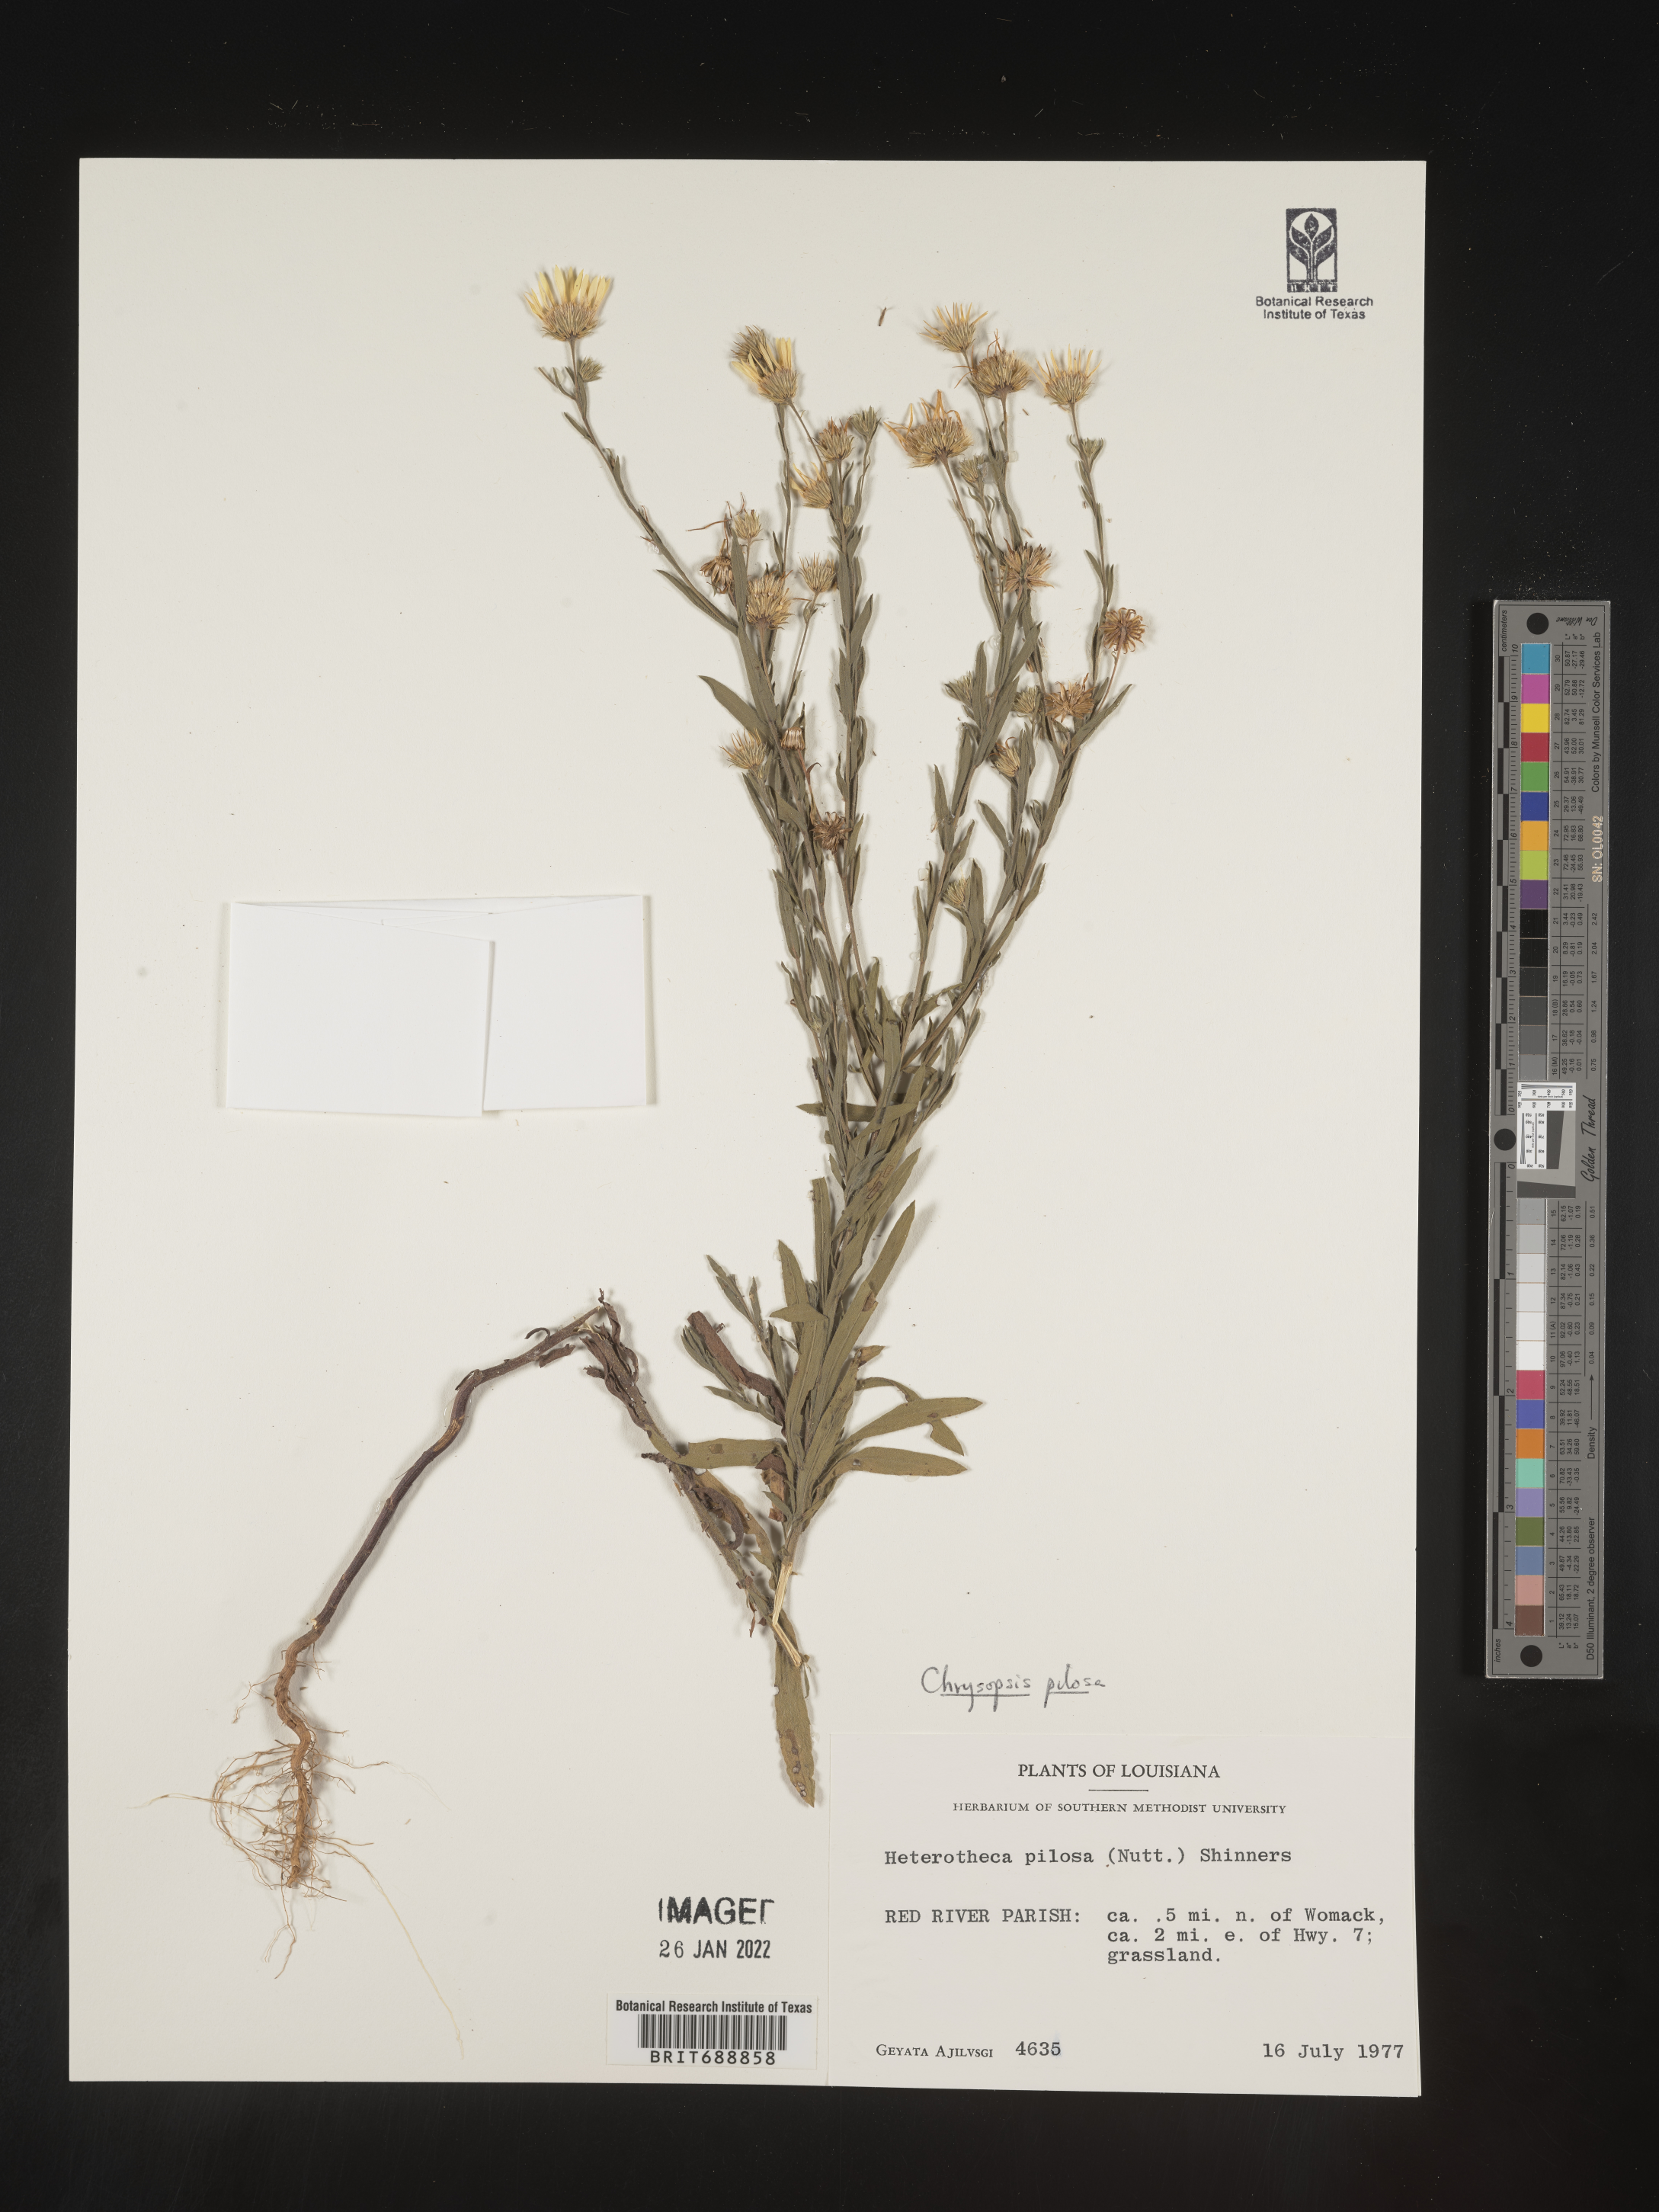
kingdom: Plantae
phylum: Tracheophyta
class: Magnoliopsida
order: Asterales
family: Asteraceae
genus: Bradburia
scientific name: Bradburia pilosa
